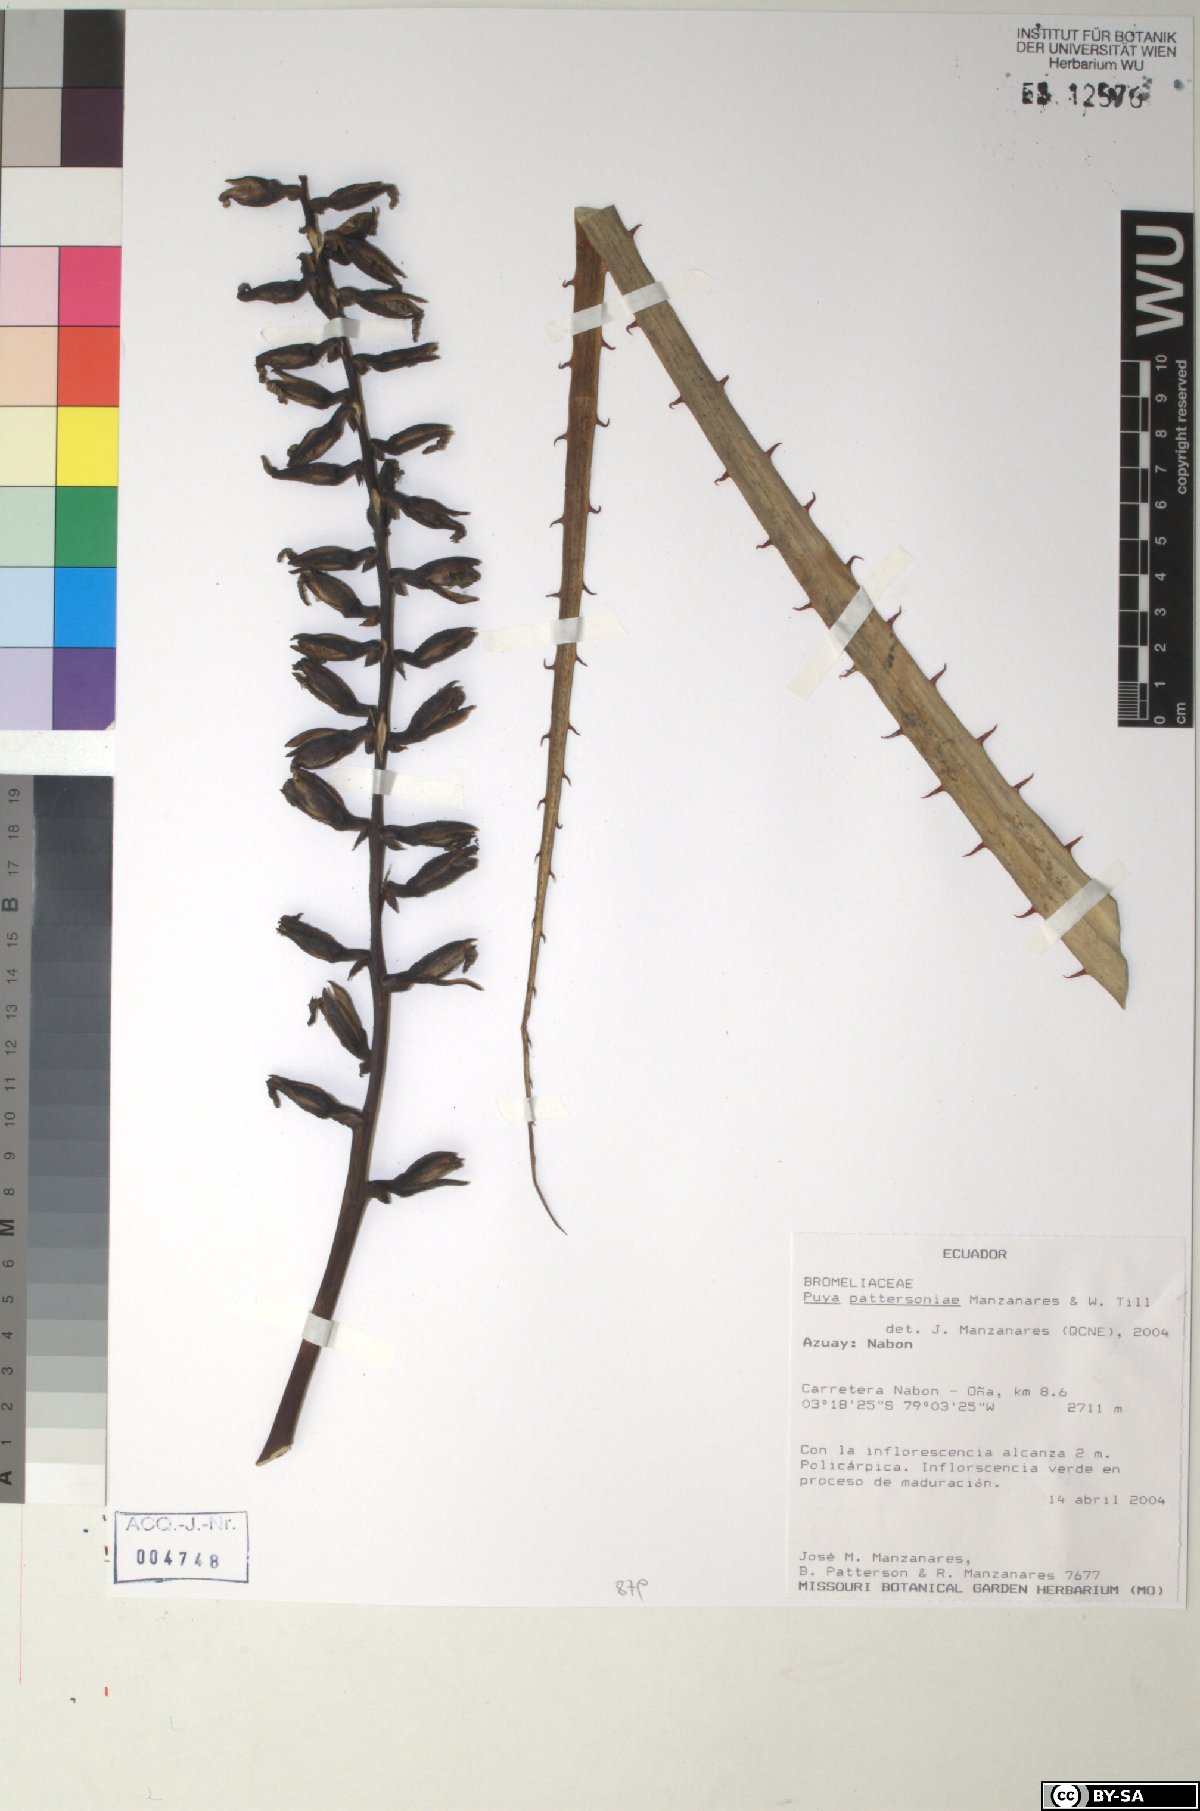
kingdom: Plantae
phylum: Tracheophyta
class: Liliopsida
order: Poales
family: Bromeliaceae
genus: Puya
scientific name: Puya pattersoniae
